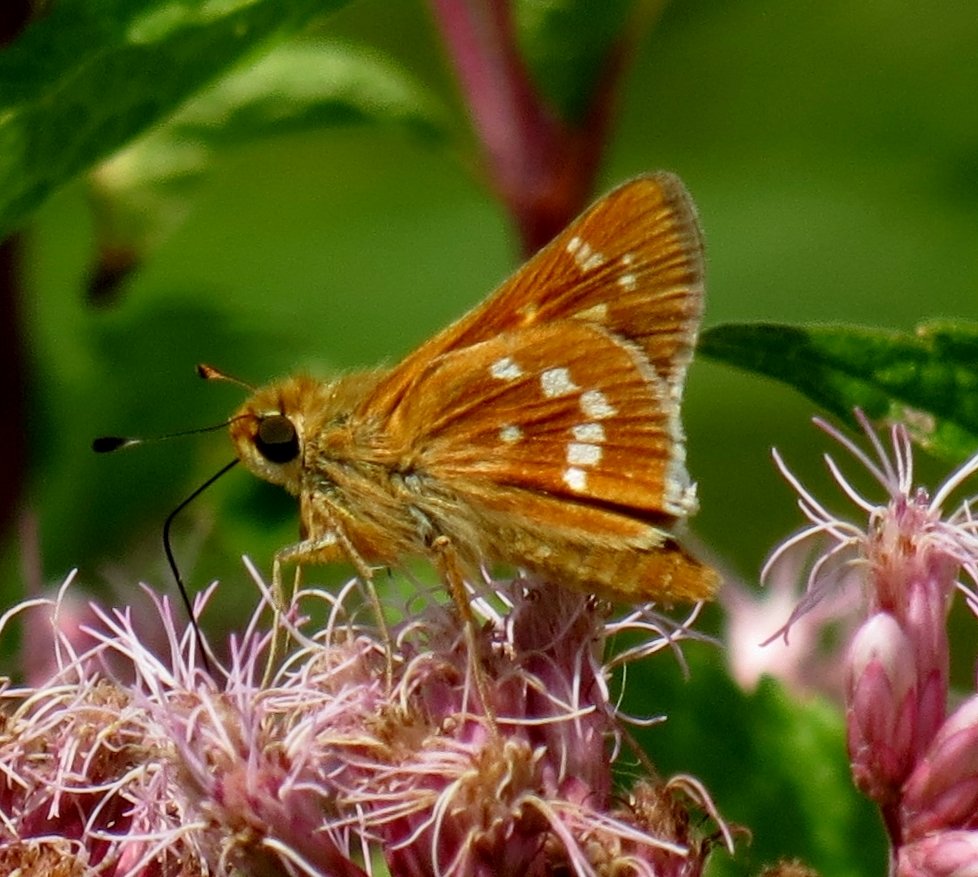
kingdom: Animalia
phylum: Arthropoda
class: Insecta
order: Lepidoptera
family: Hesperiidae
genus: Hesperia
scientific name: Hesperia leonardus
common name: Leonard's Skipper
